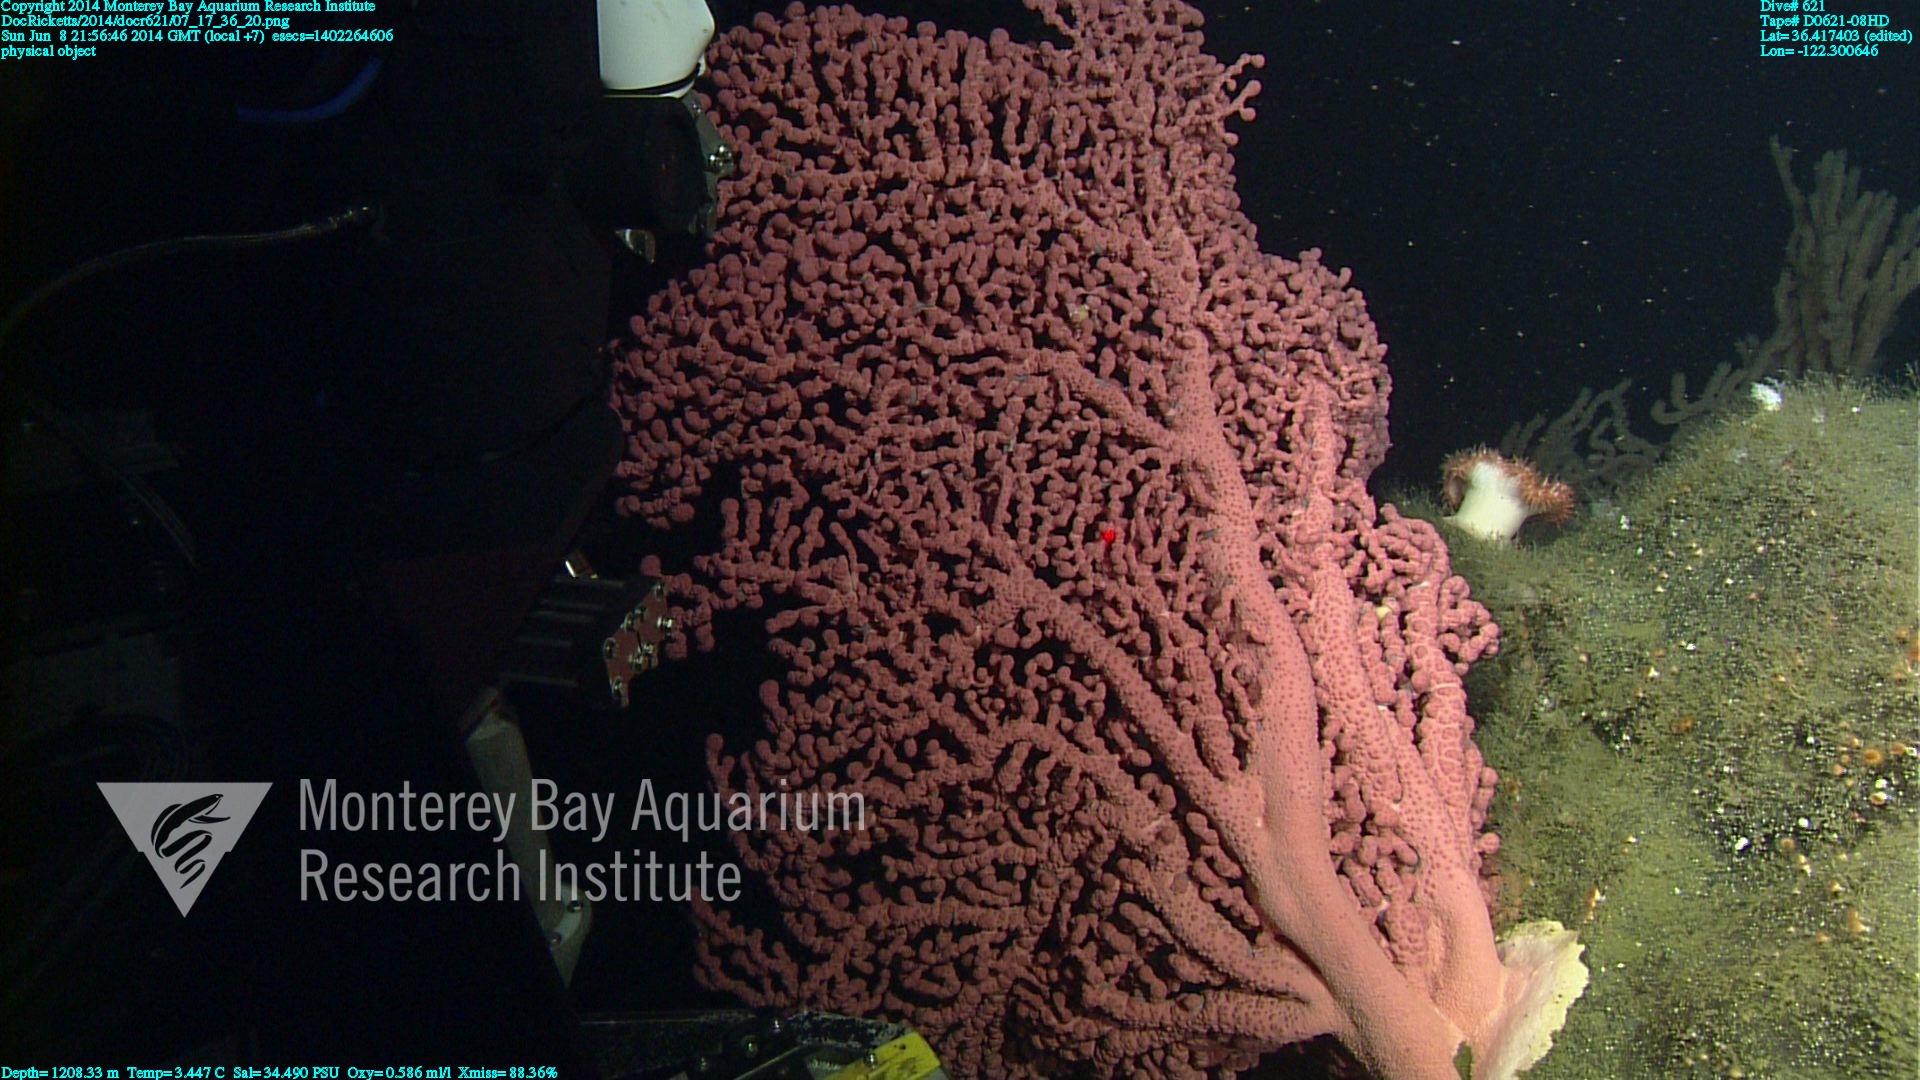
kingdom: Animalia
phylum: Cnidaria
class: Anthozoa
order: Scleralcyonacea
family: Coralliidae
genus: Paragorgia
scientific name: Paragorgia arborea
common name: Bubble gum coral
